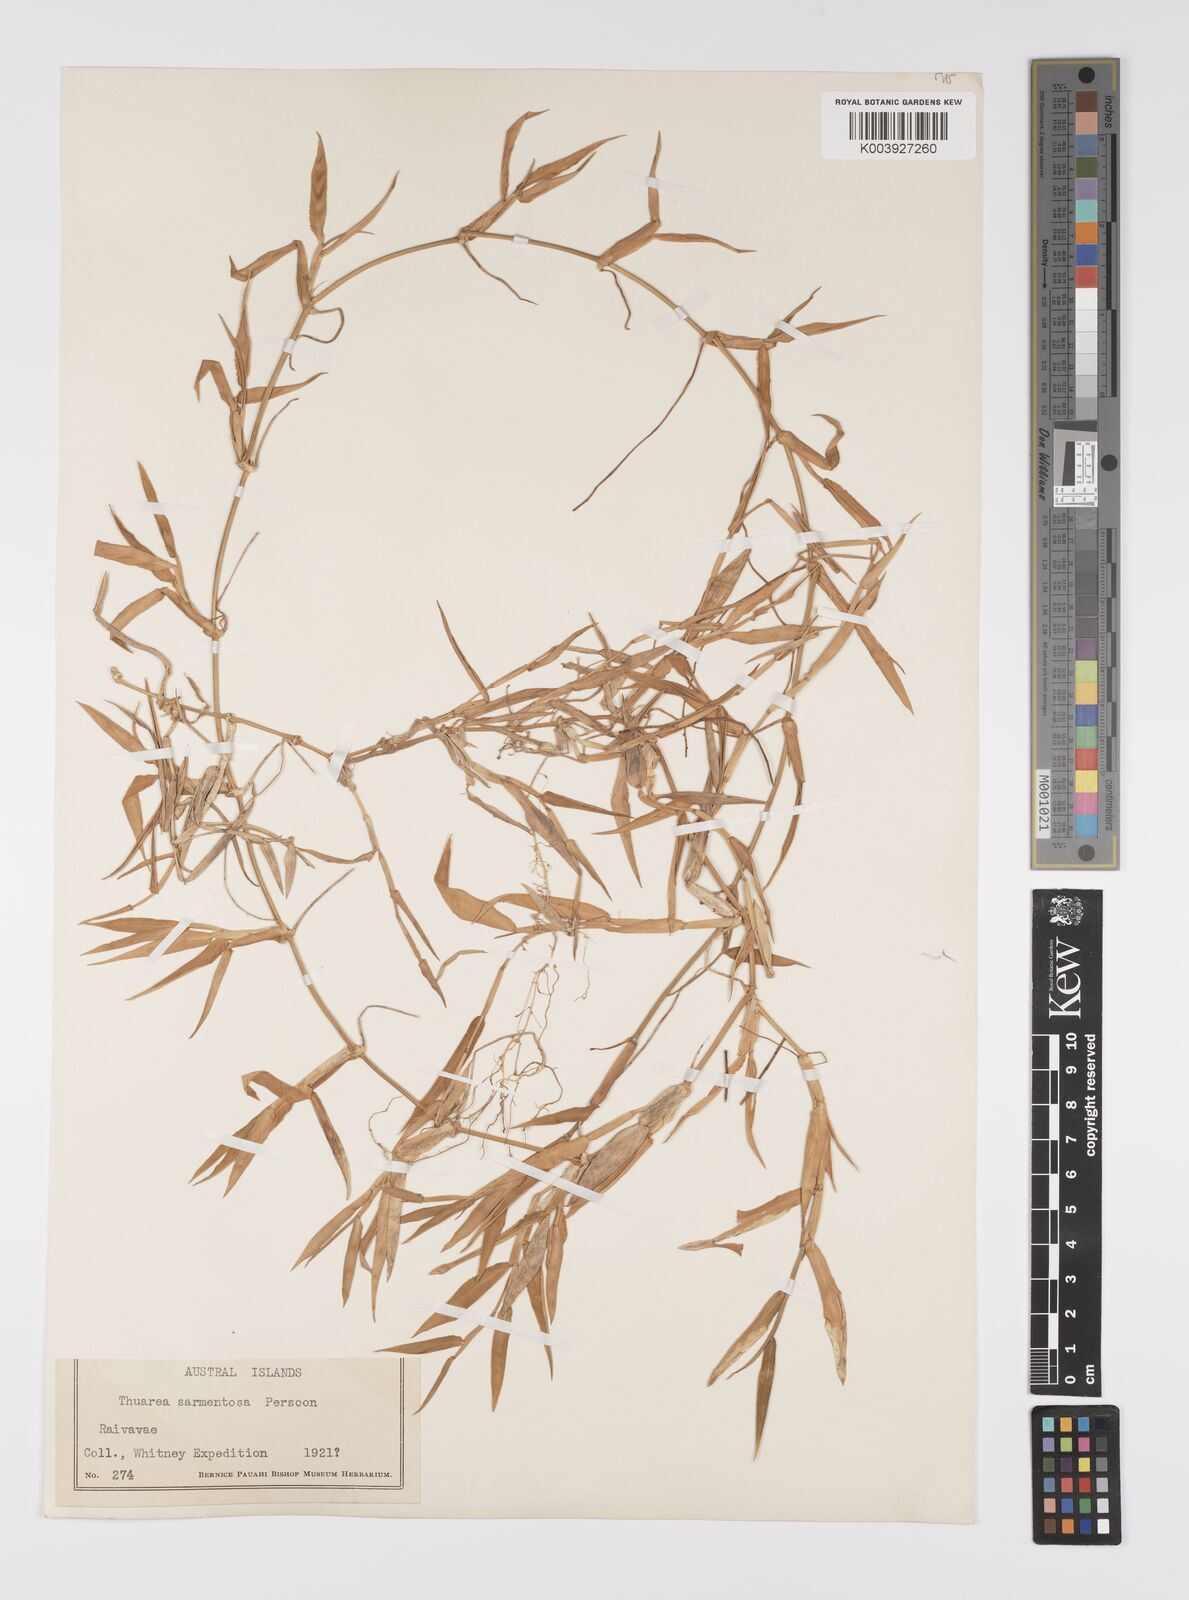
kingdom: Plantae
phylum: Tracheophyta
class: Liliopsida
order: Poales
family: Poaceae
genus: Thuarea
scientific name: Thuarea involuta
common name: Tropical beach grass
